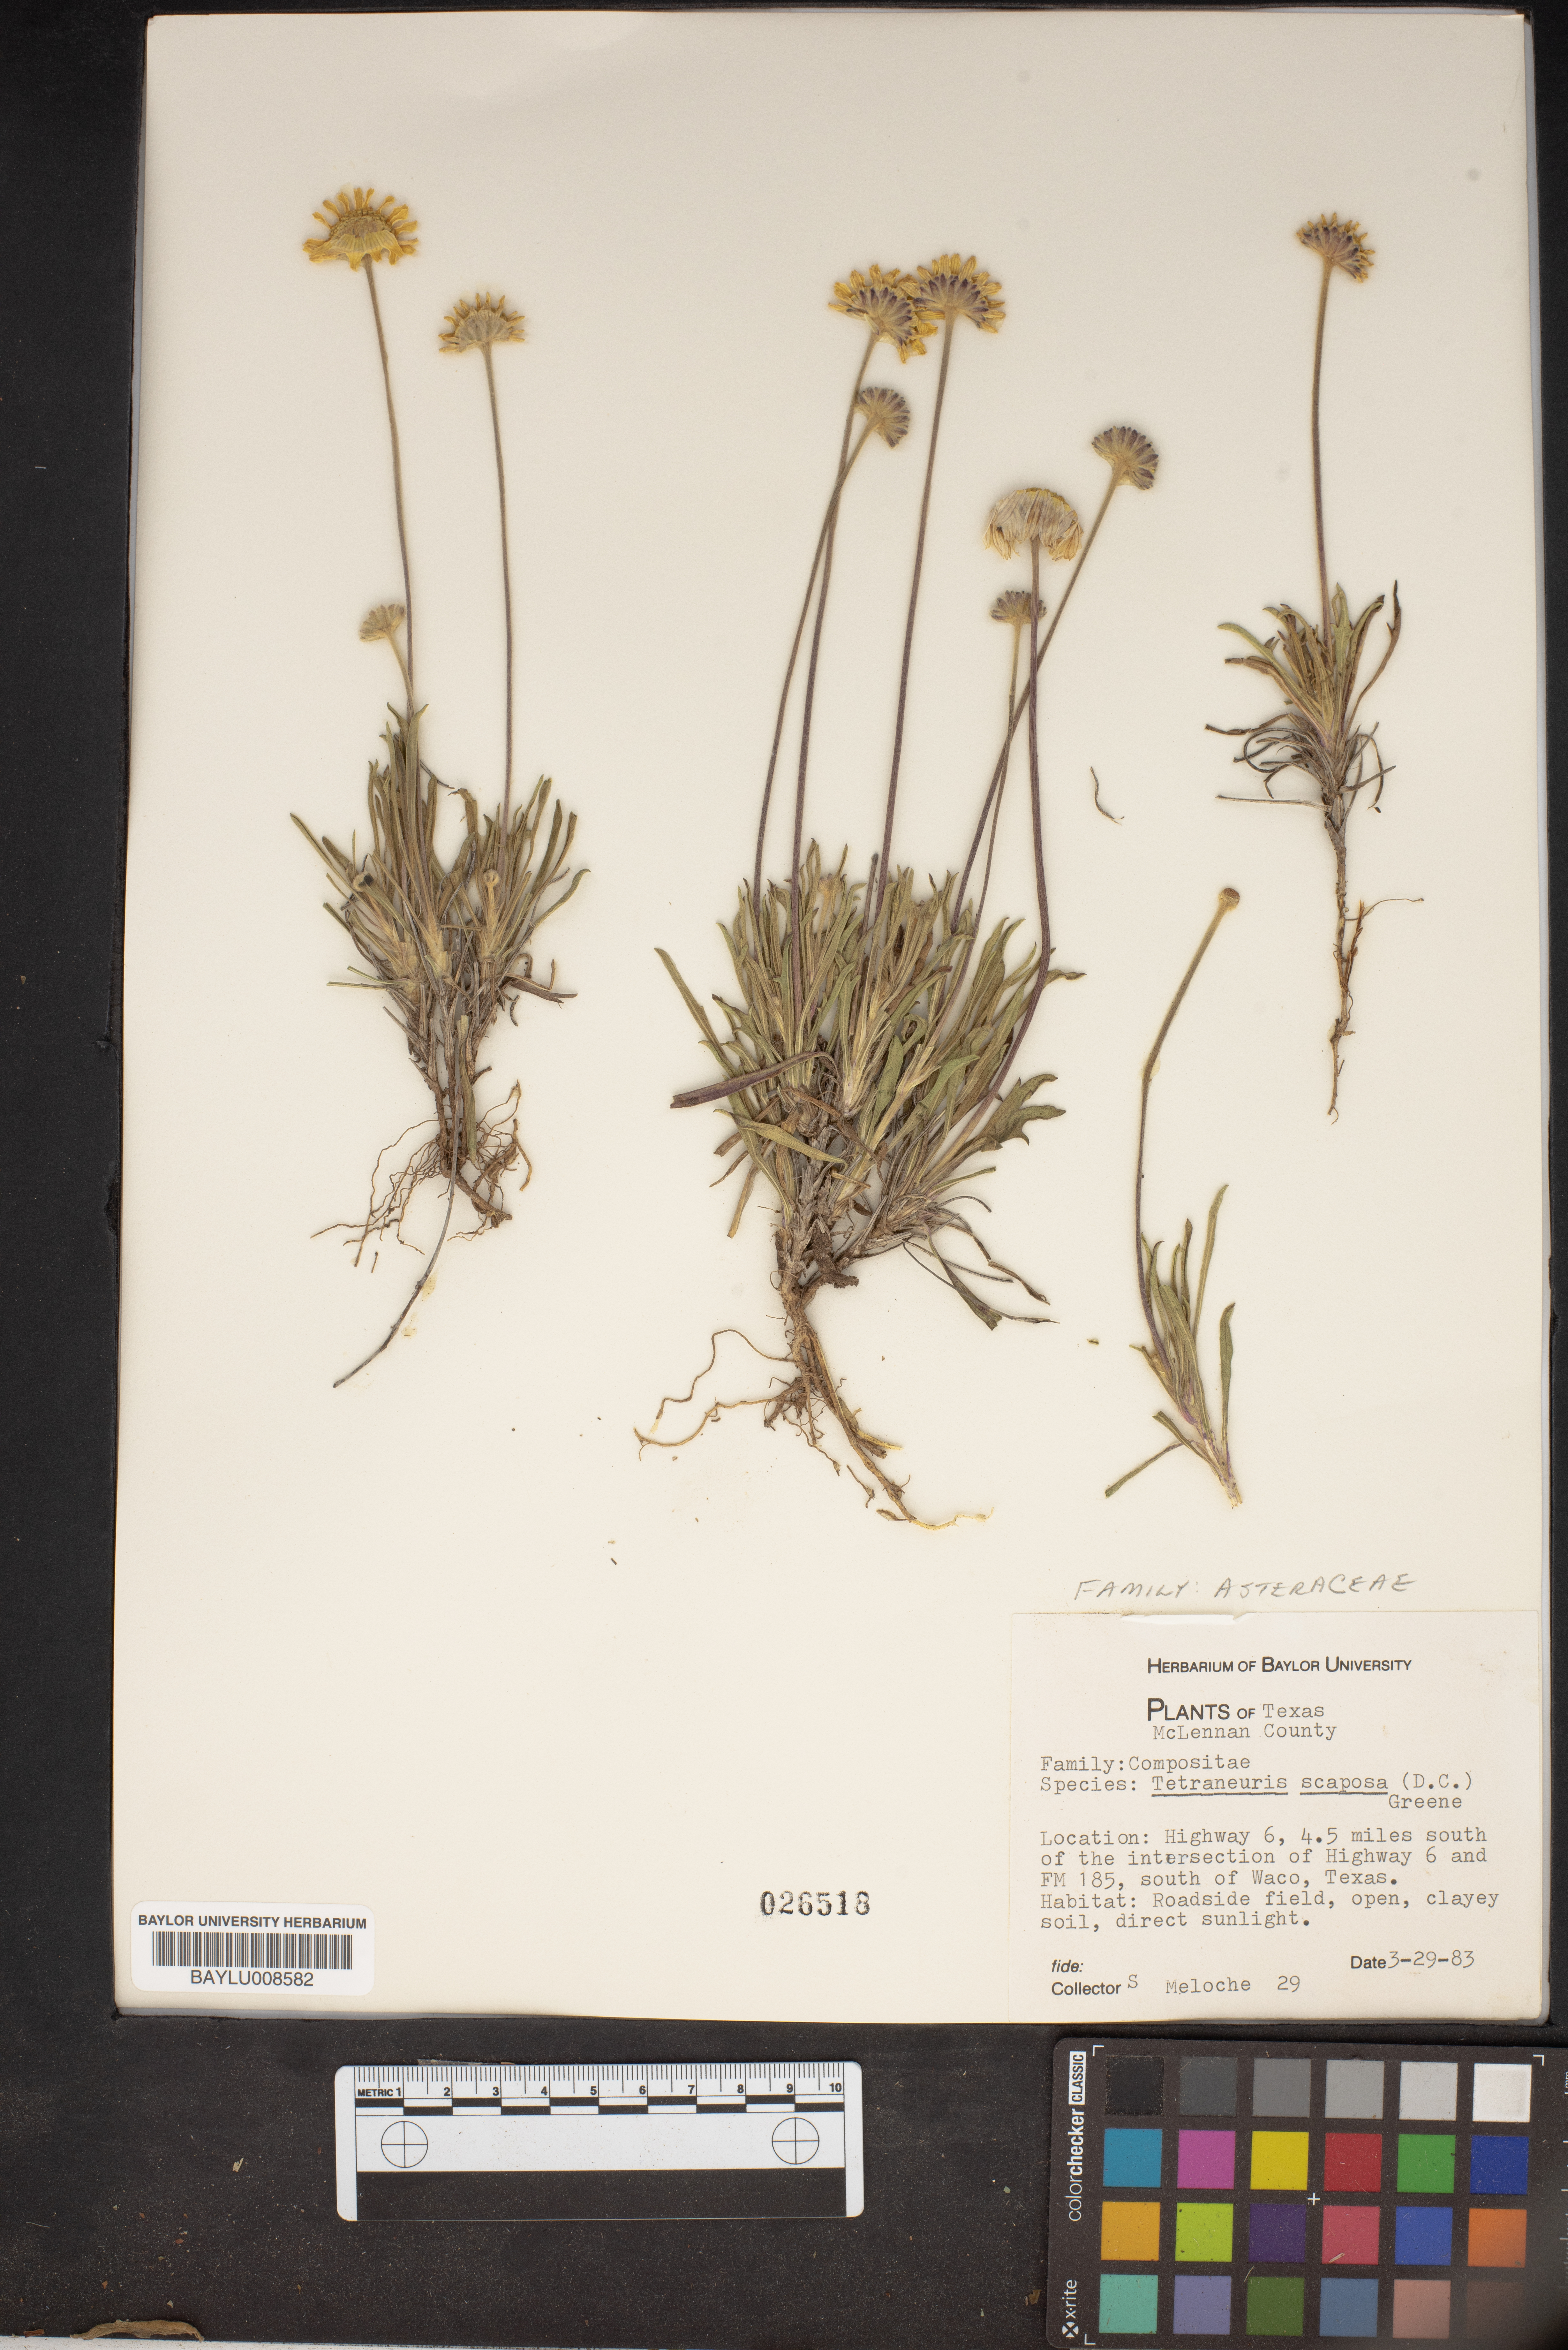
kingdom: Plantae
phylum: Tracheophyta
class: Magnoliopsida
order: Asterales
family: Asteraceae
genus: Tetraneuris
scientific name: Tetraneuris scaposa
